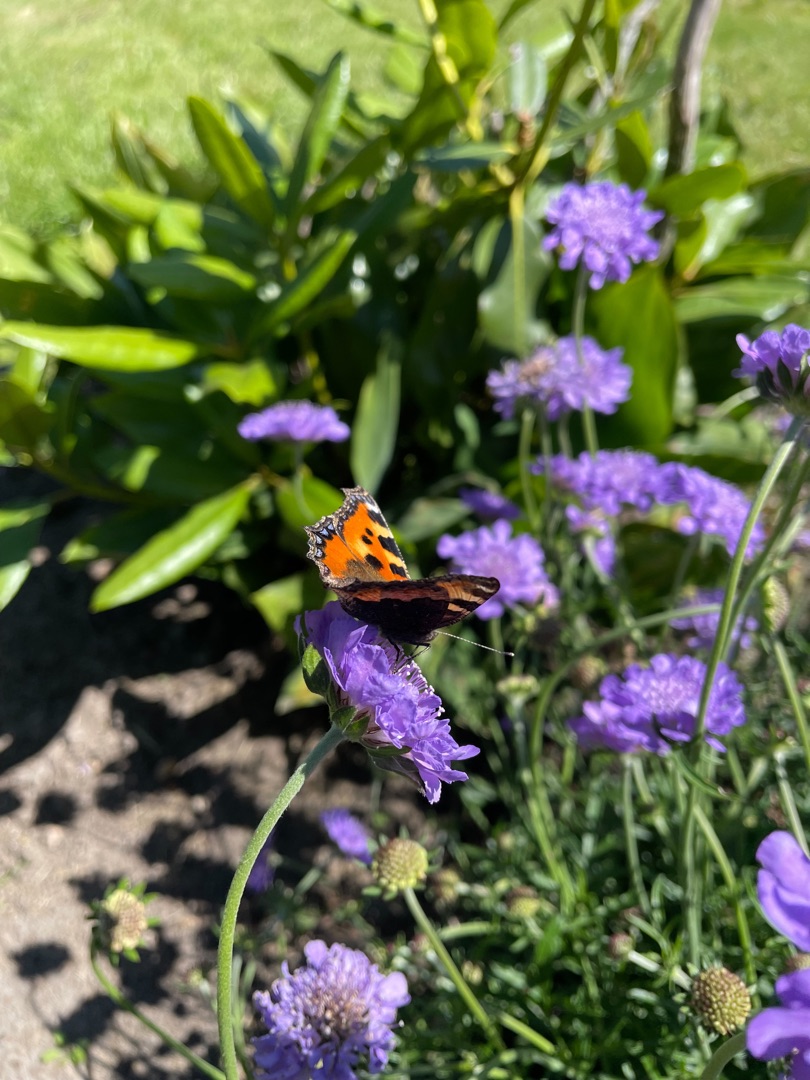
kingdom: Animalia
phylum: Arthropoda
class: Insecta
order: Lepidoptera
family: Nymphalidae
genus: Aglais
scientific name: Aglais urticae
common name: Nældens takvinge
